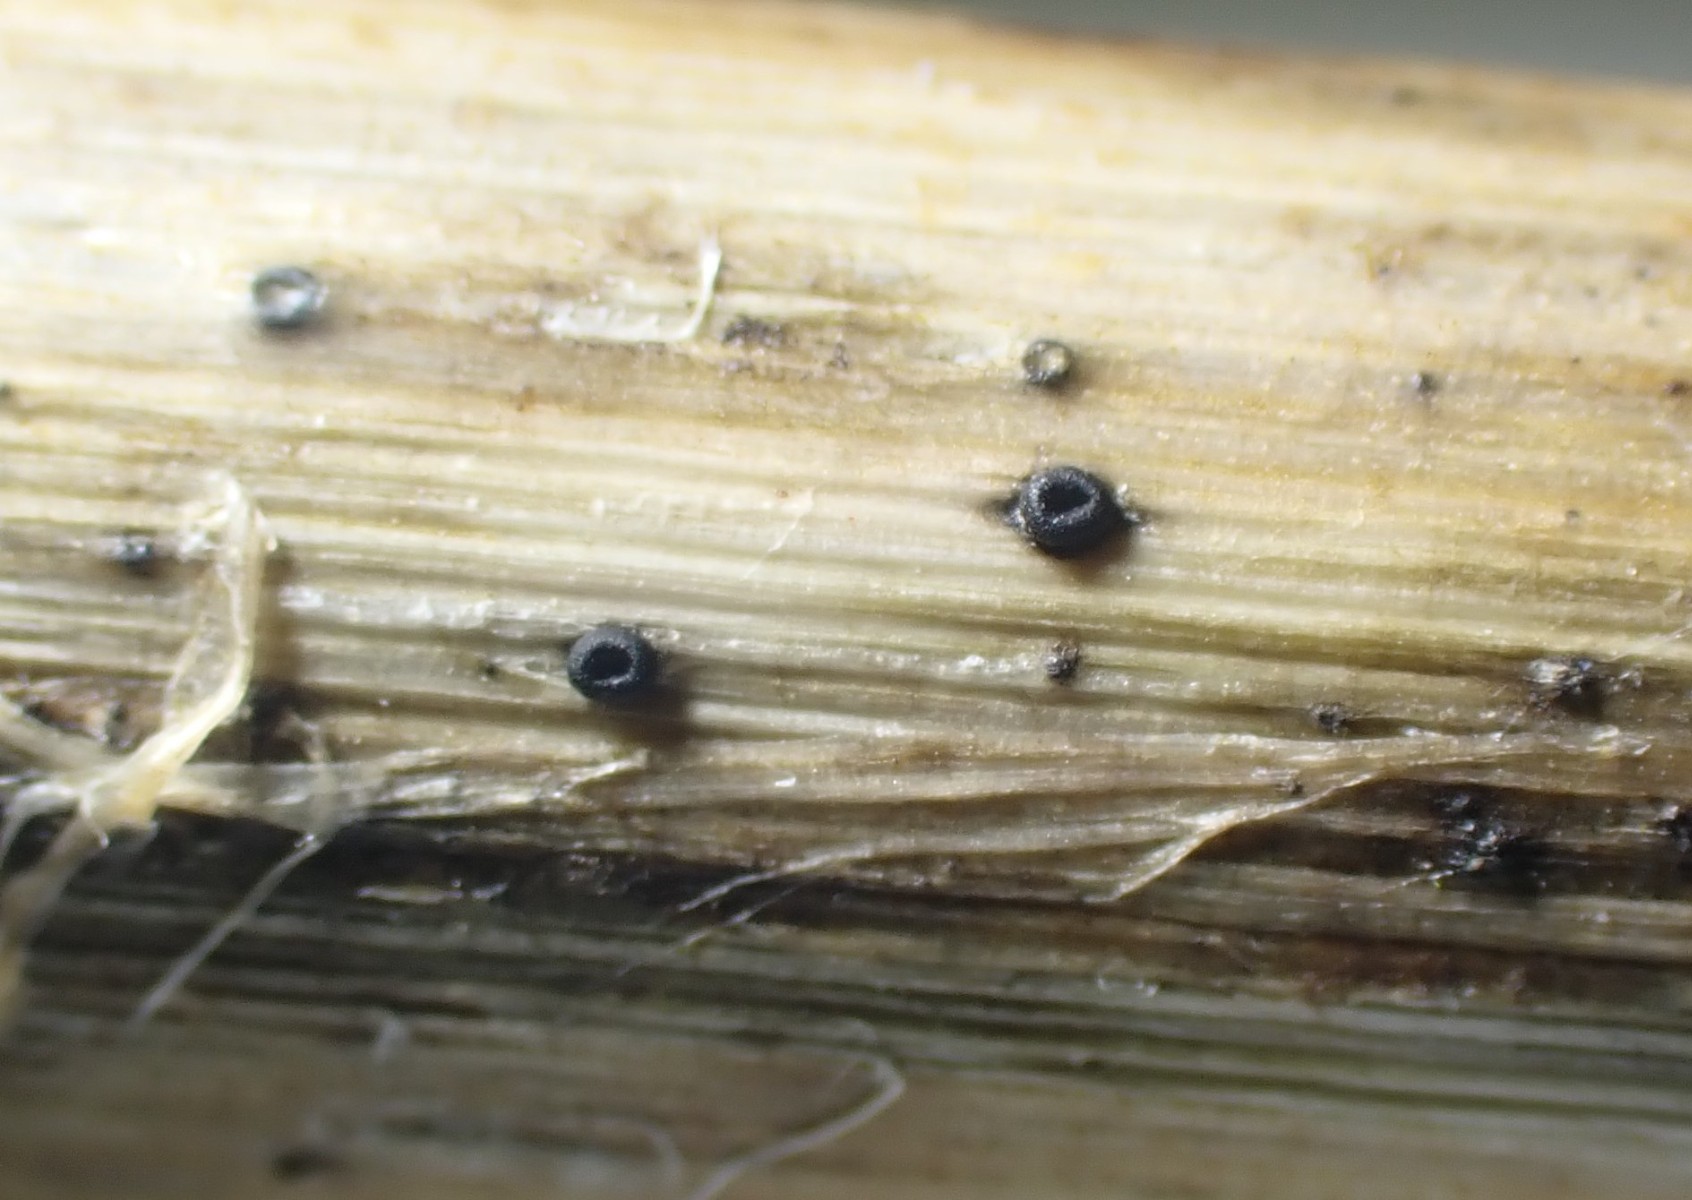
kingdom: Fungi
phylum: Ascomycota
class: Leotiomycetes
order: Helotiales
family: Heterosphaeriaceae
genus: Heterosphaeria
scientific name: Heterosphaeria
